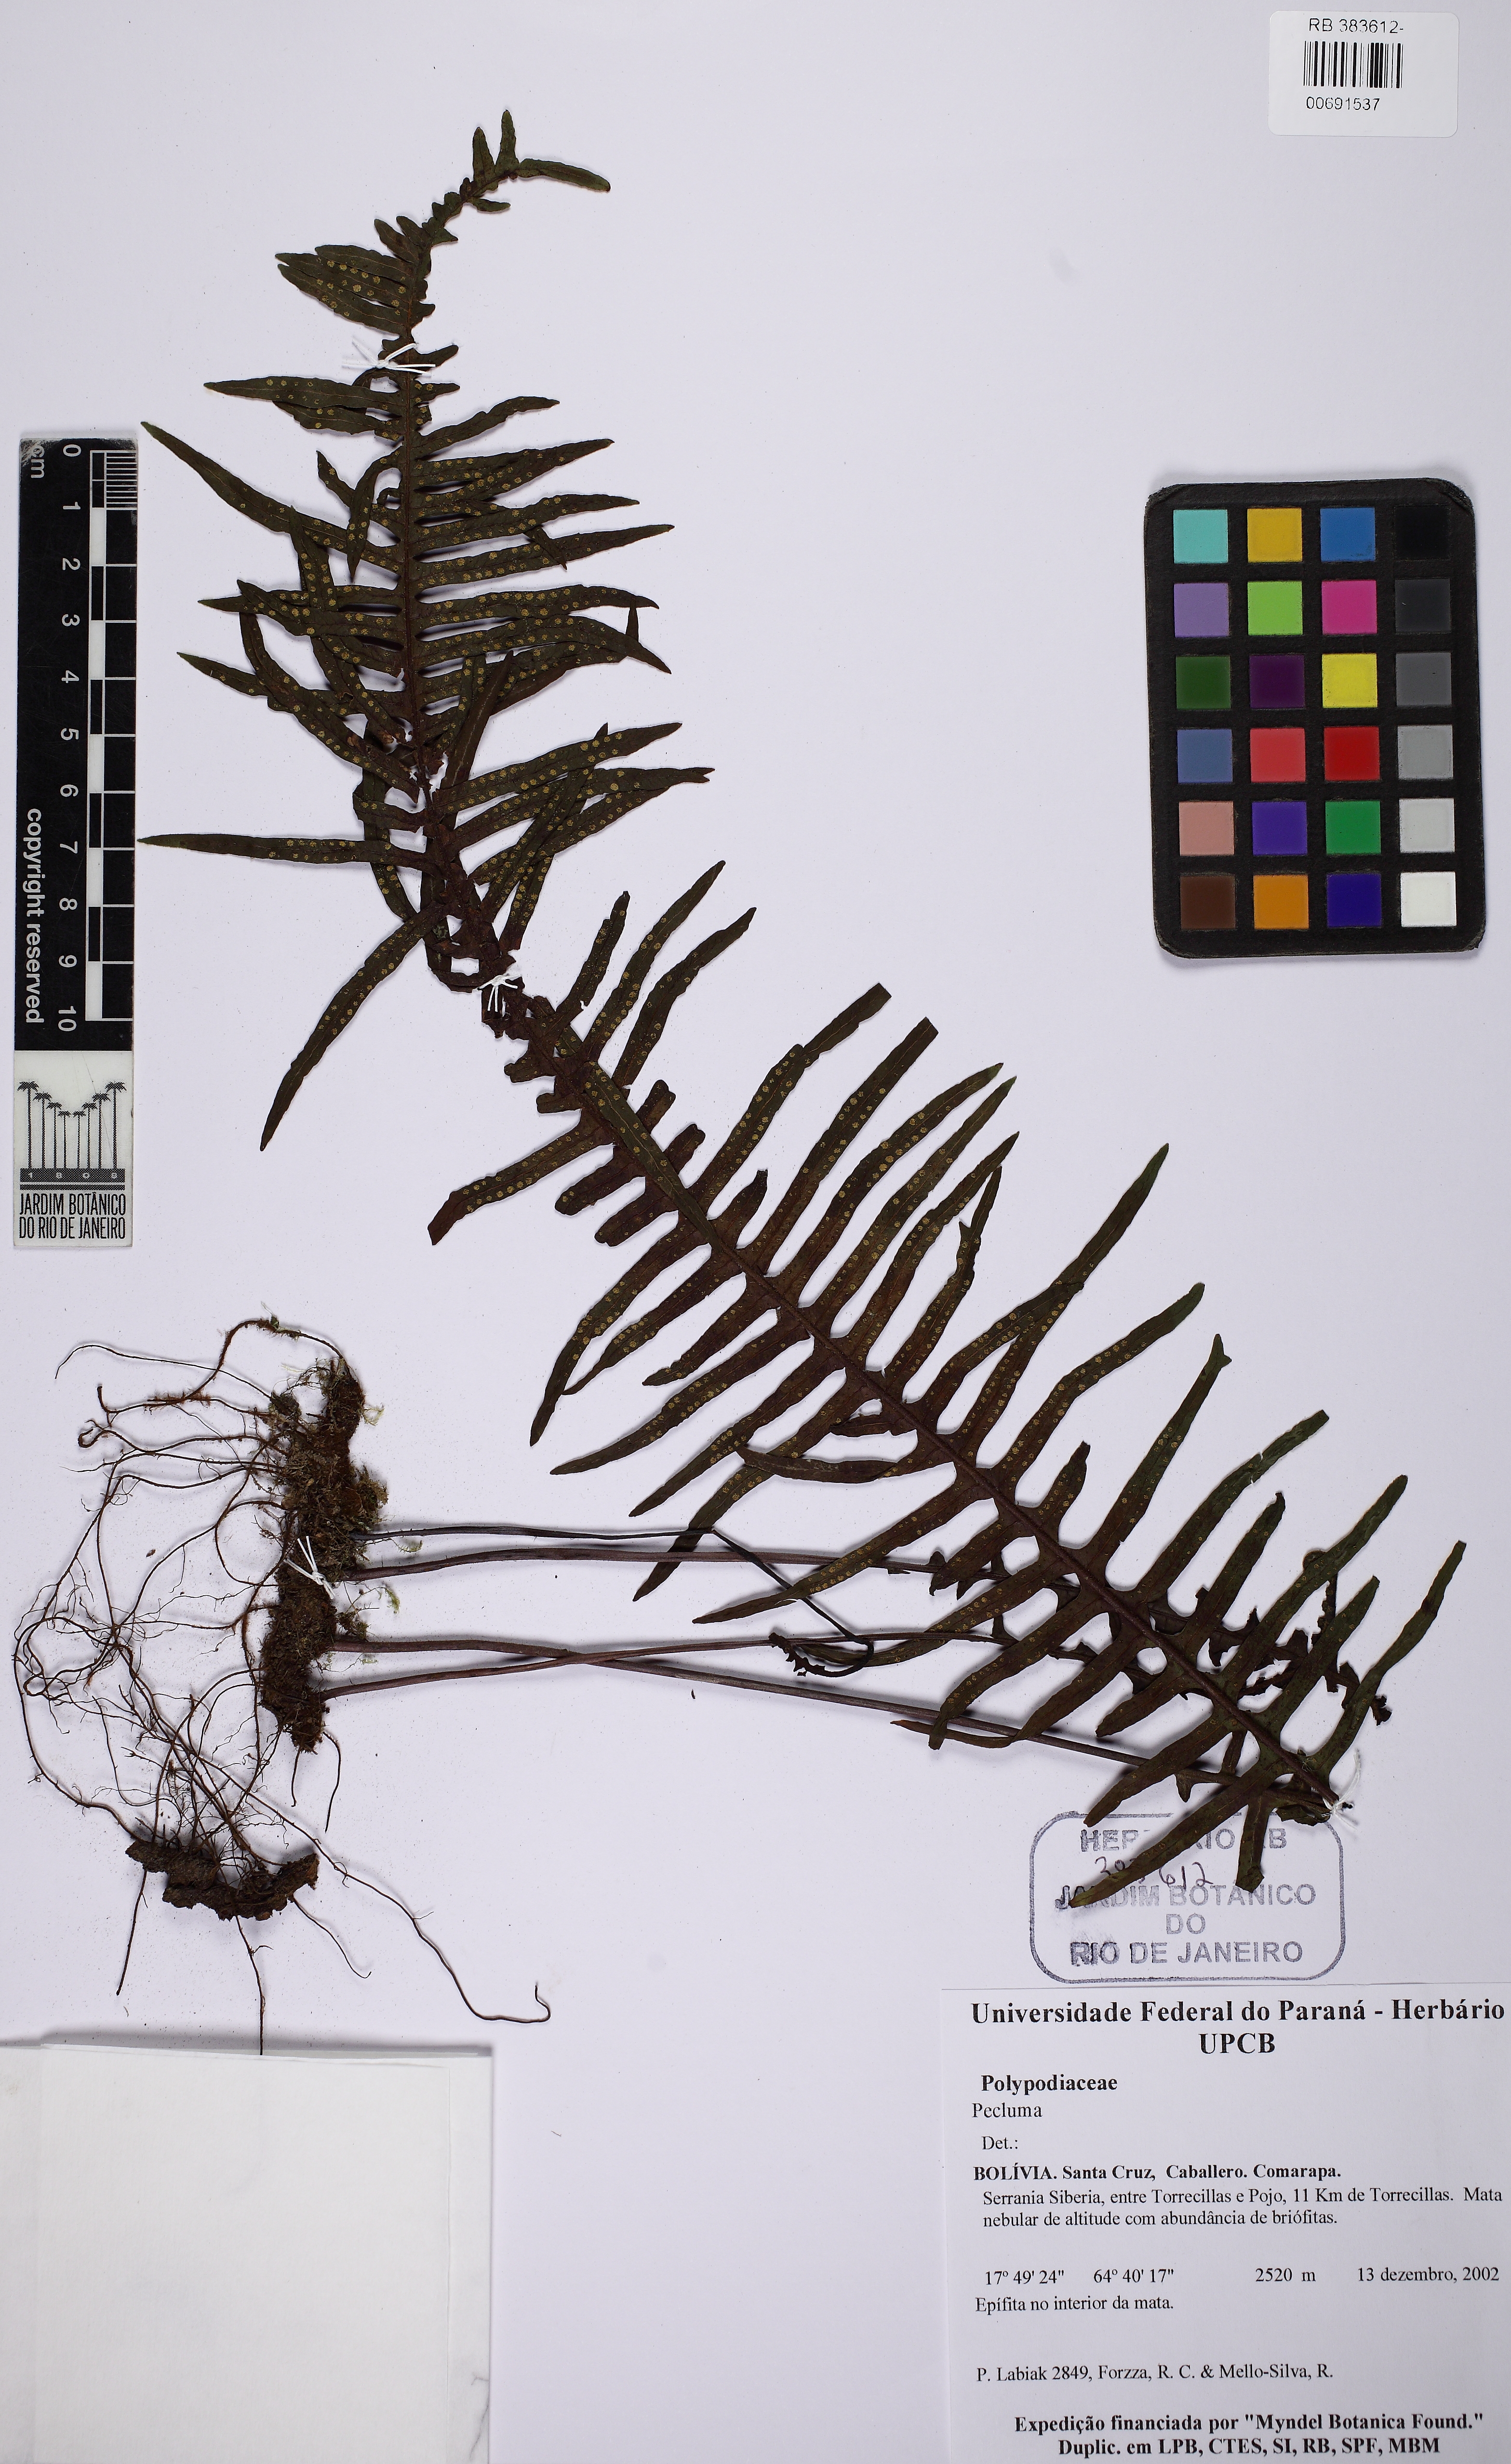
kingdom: Plantae
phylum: Tracheophyta
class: Polypodiopsida
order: Polypodiales
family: Polypodiaceae
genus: Pecluma
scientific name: Pecluma
